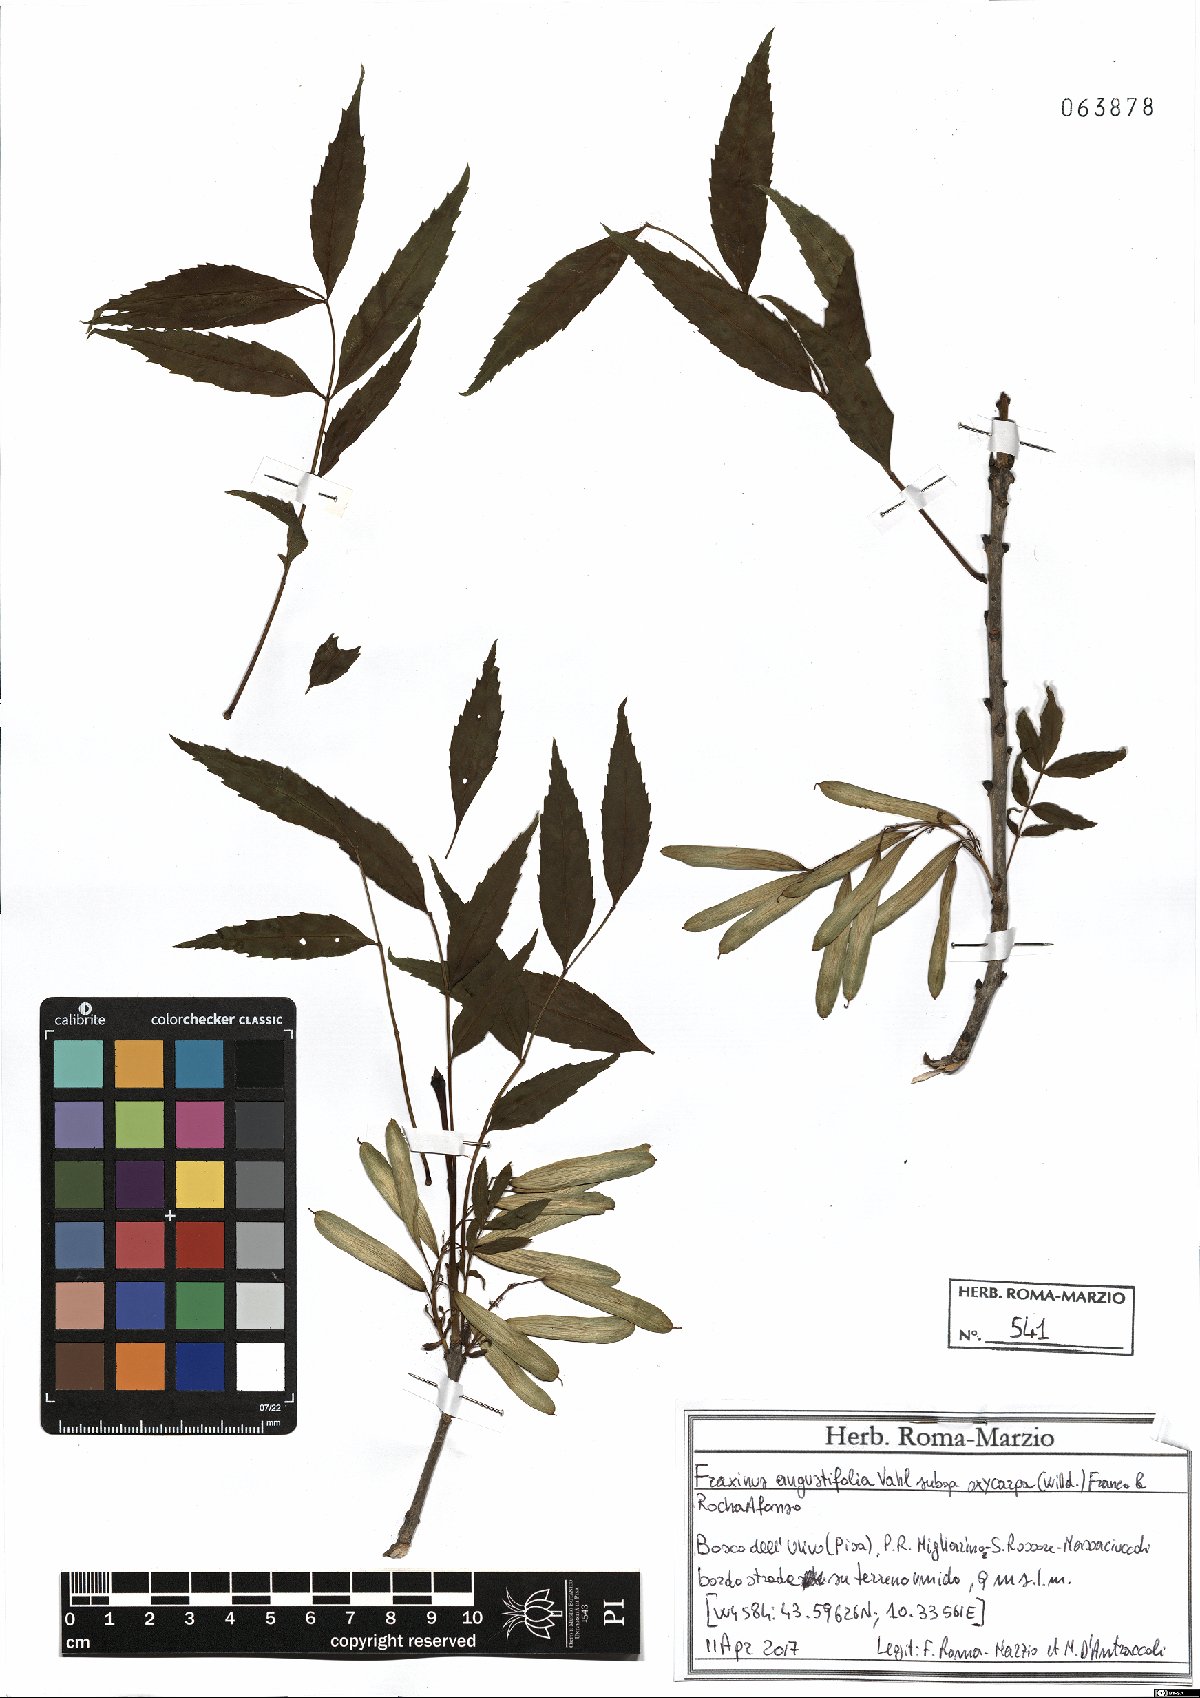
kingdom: Plantae
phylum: Tracheophyta
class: Magnoliopsida
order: Lamiales
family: Oleaceae
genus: Fraxinus
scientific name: Fraxinus angustifolia
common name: Narrow-leafed ash
